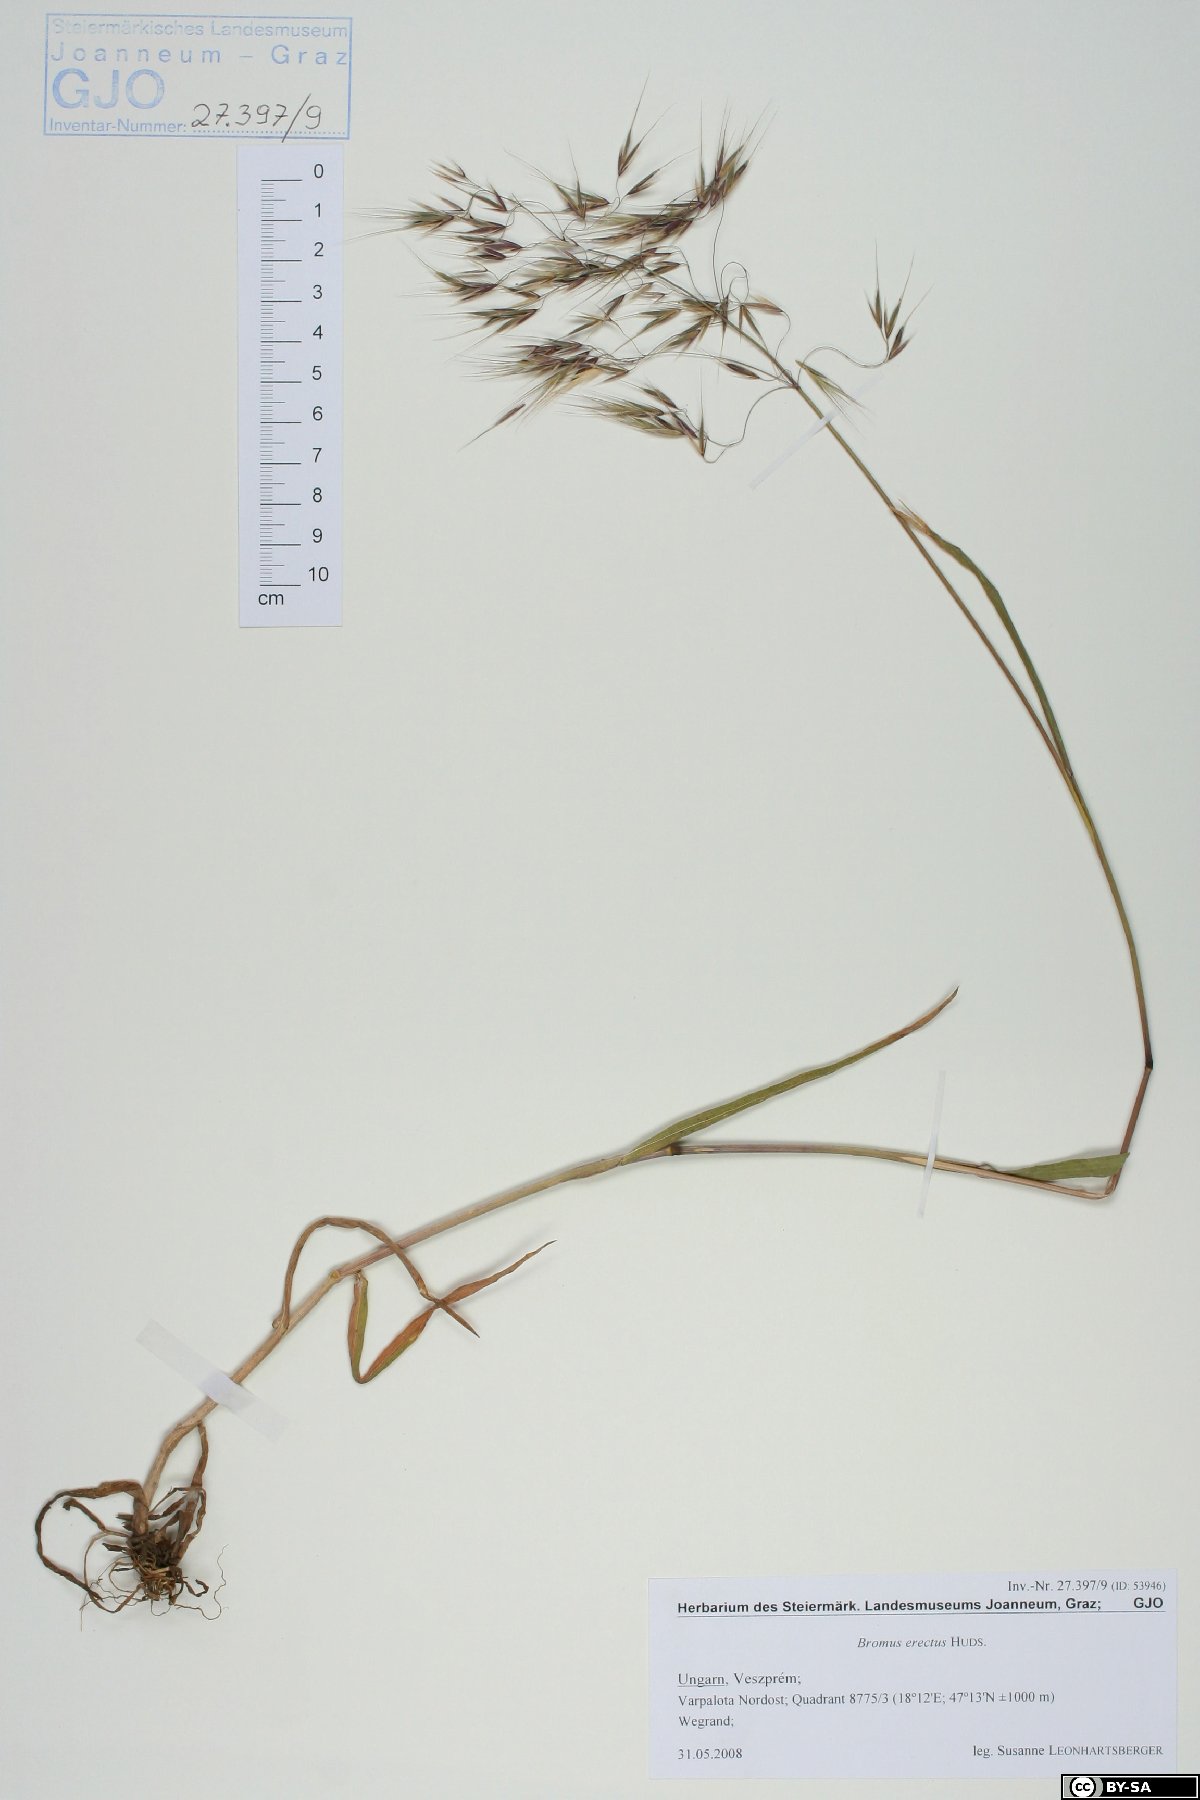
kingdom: Plantae
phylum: Tracheophyta
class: Liliopsida
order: Poales
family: Poaceae
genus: Bromus
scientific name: Bromus erectus
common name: Erect brome
